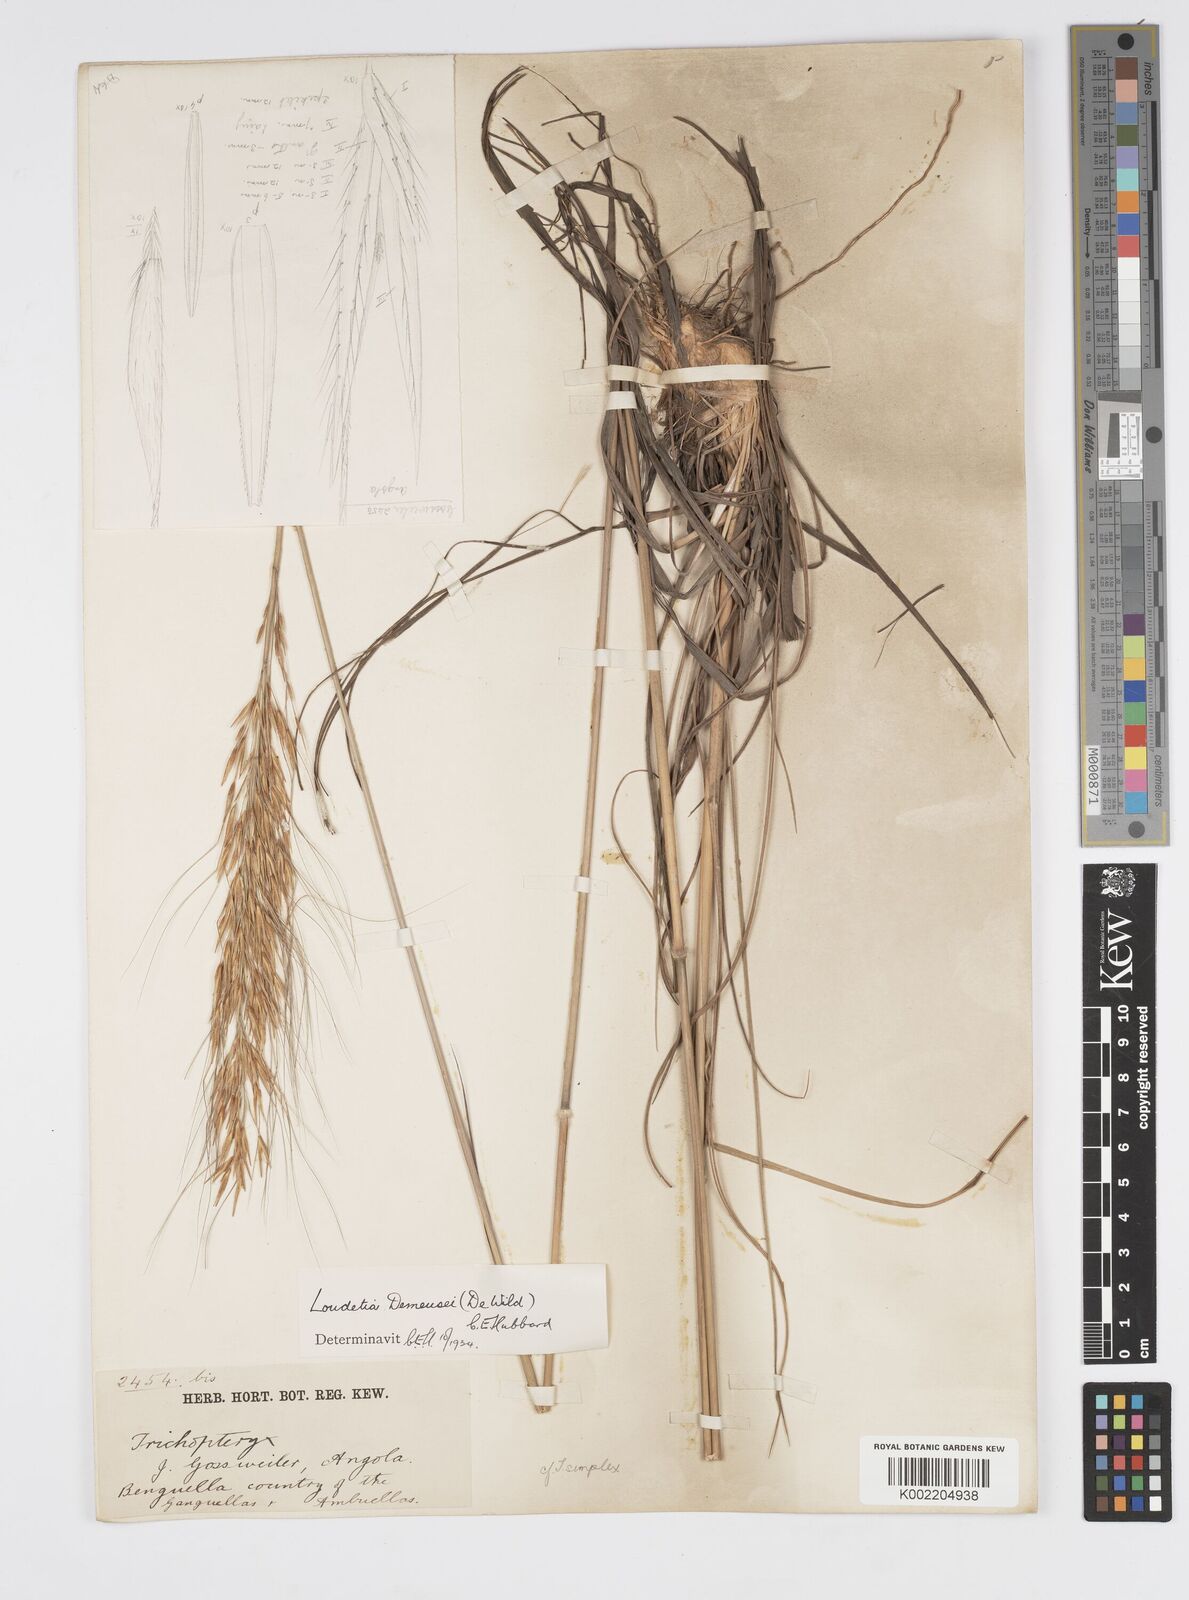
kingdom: Plantae
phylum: Tracheophyta
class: Liliopsida
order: Poales
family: Poaceae
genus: Loudetia
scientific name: Loudetia lanata
